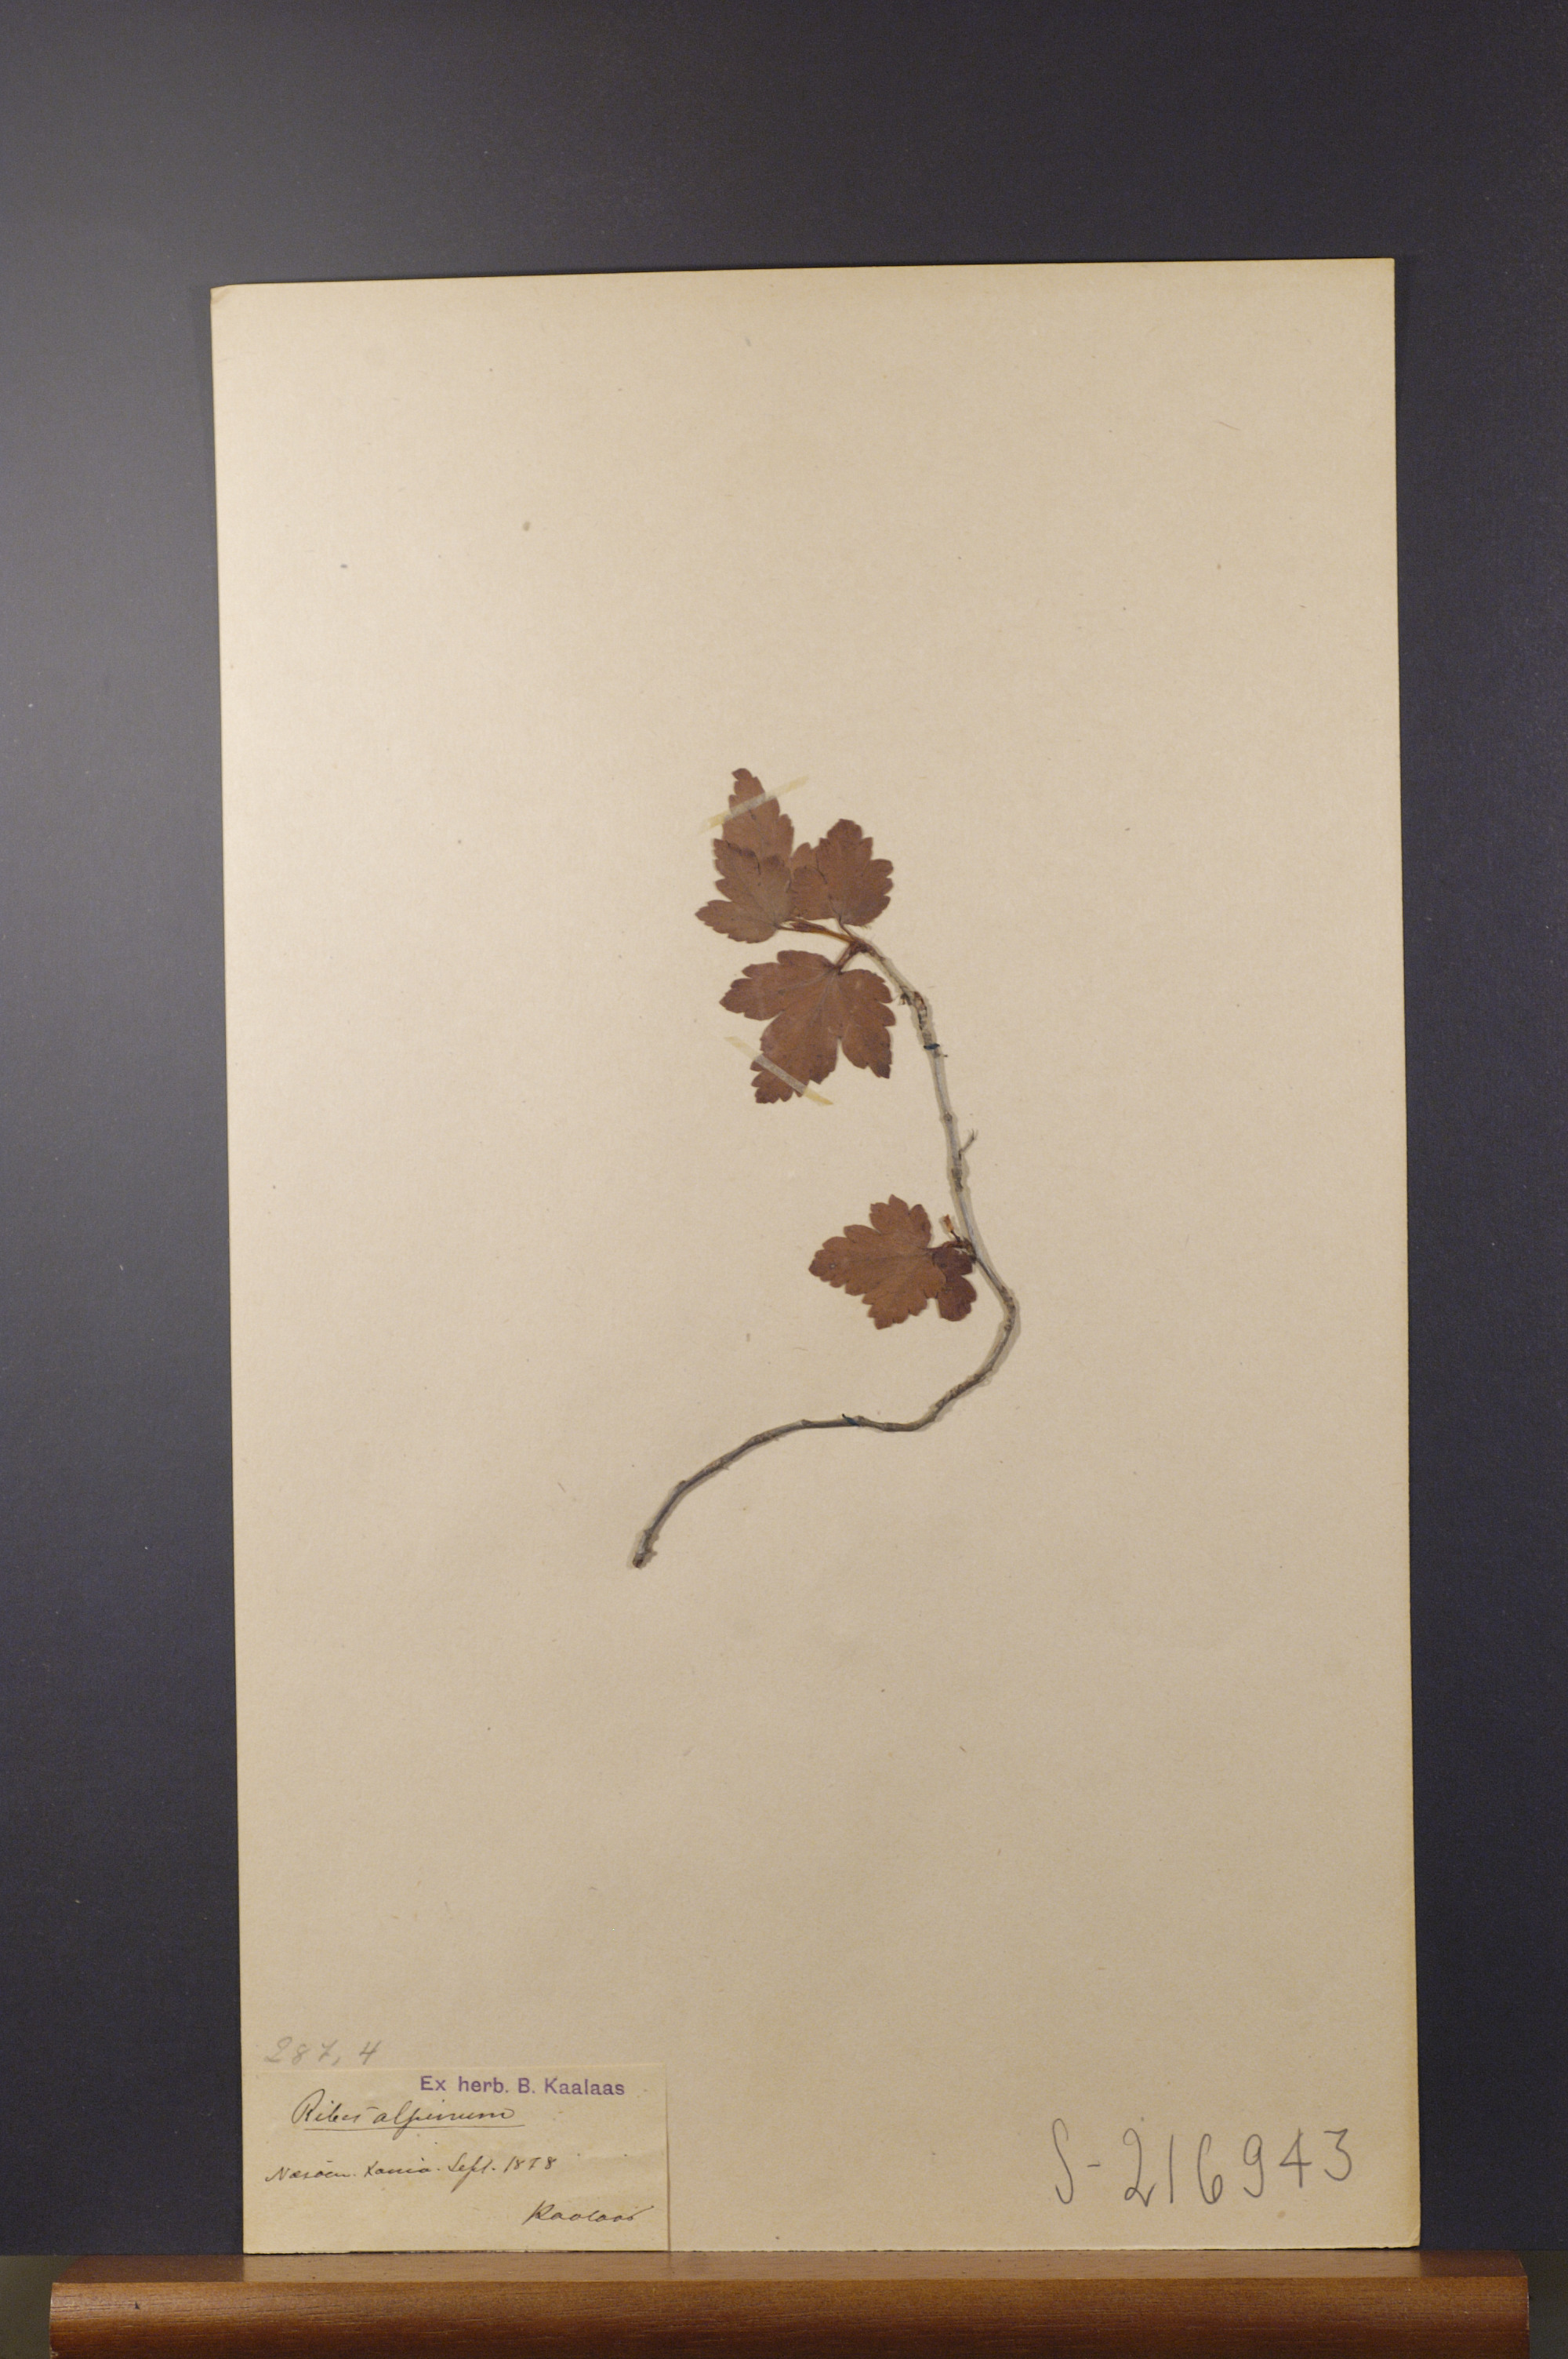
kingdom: Plantae
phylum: Tracheophyta
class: Magnoliopsida
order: Saxifragales
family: Grossulariaceae
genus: Ribes
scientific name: Ribes alpinum
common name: Alpine currant
